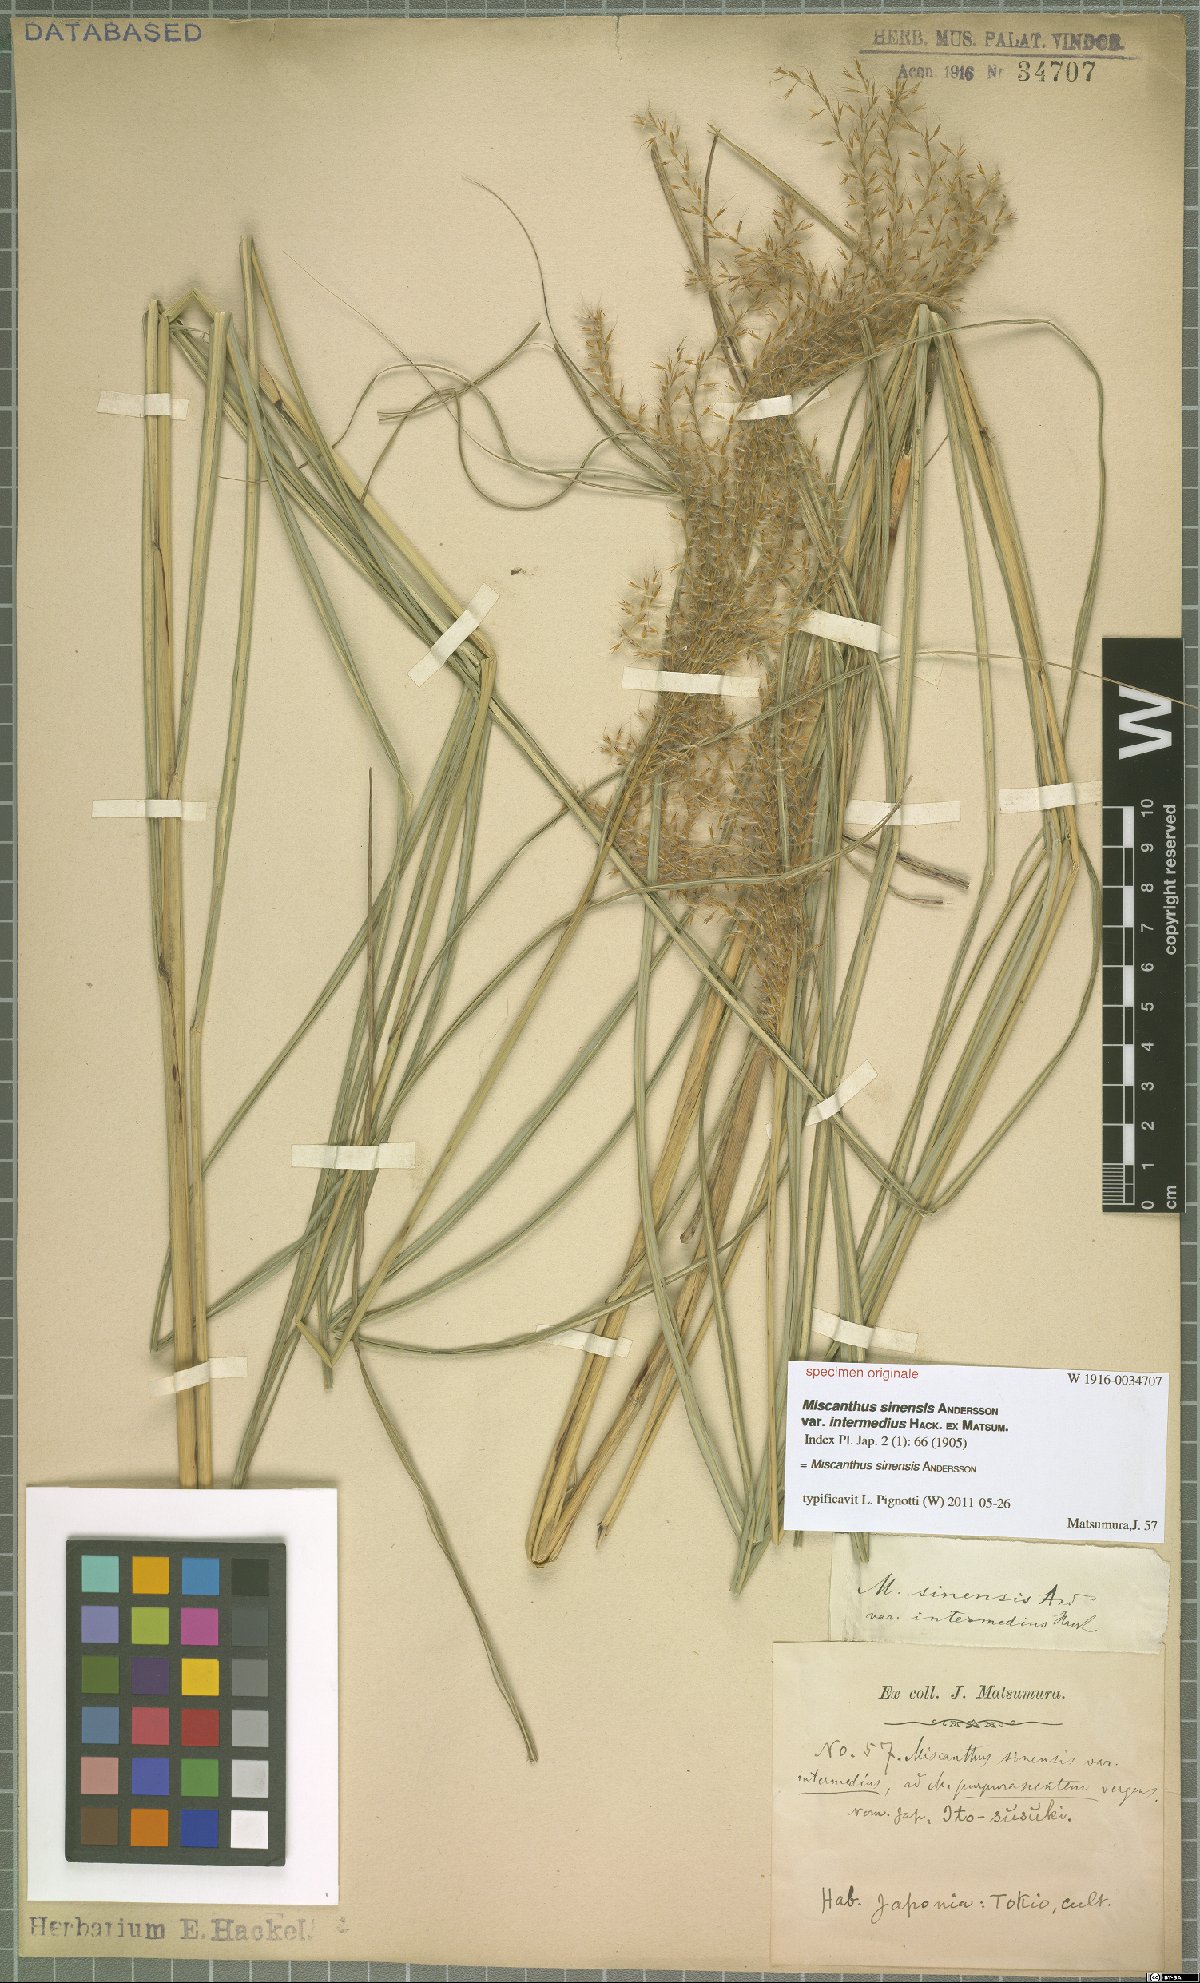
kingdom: Plantae
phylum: Tracheophyta
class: Liliopsida
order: Poales
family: Poaceae
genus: Miscanthus
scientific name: Miscanthus sinensis
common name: Chinese silvergrass
